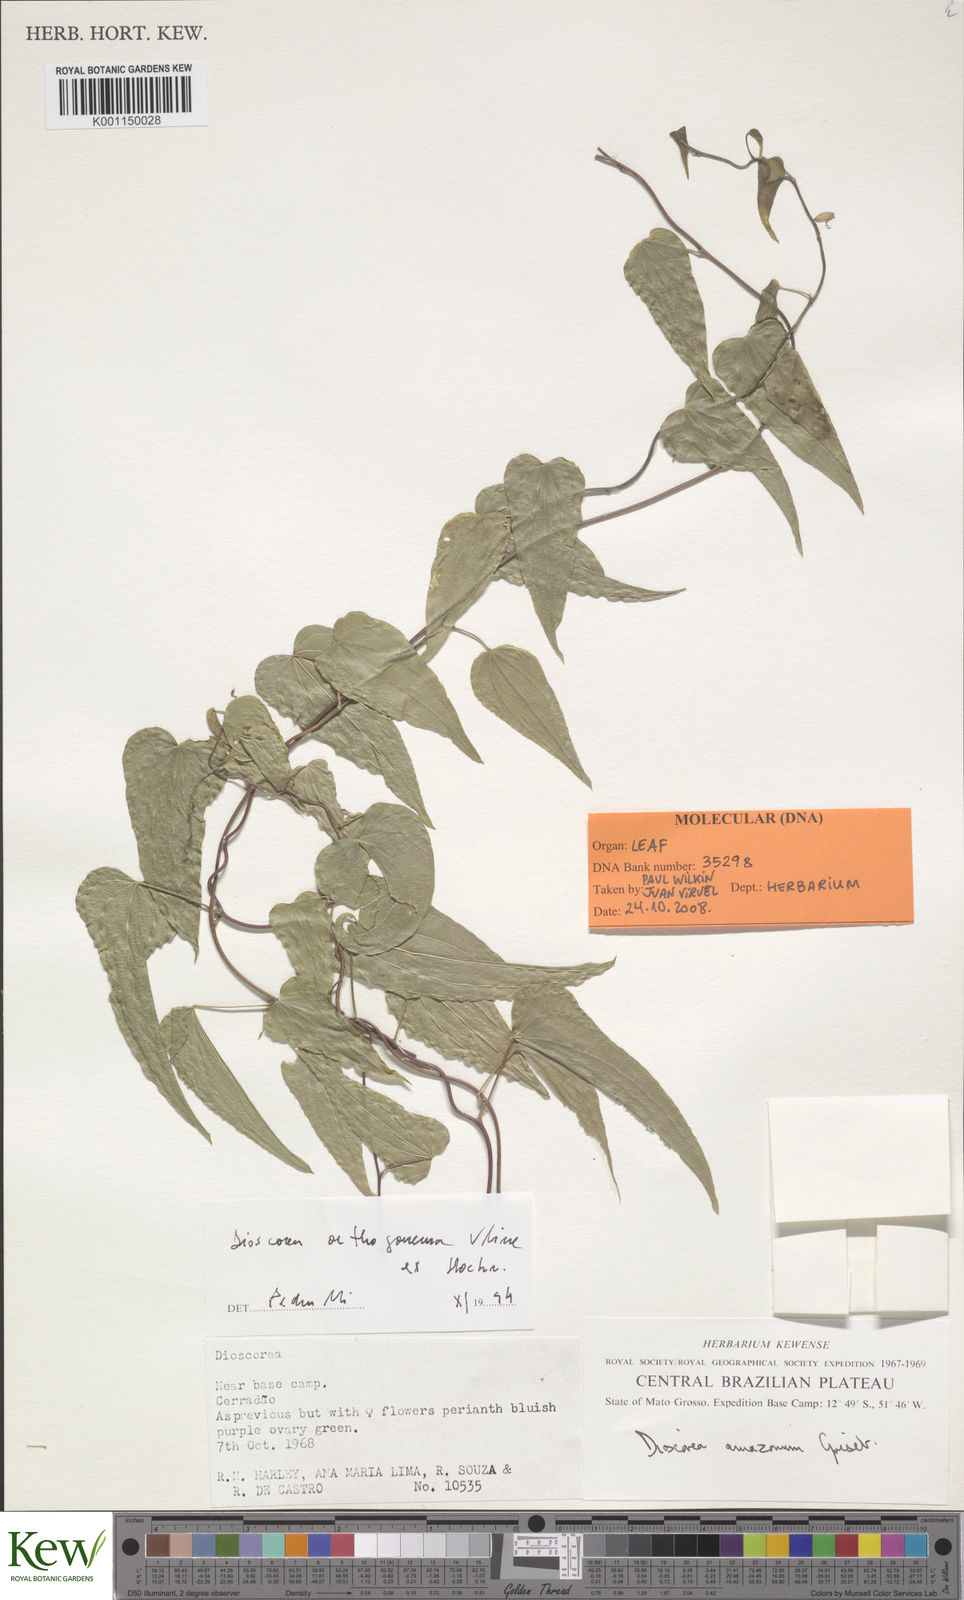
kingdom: Plantae
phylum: Tracheophyta
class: Liliopsida
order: Dioscoreales
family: Dioscoreaceae
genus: Dioscorea
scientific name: Dioscorea orthogoneura
